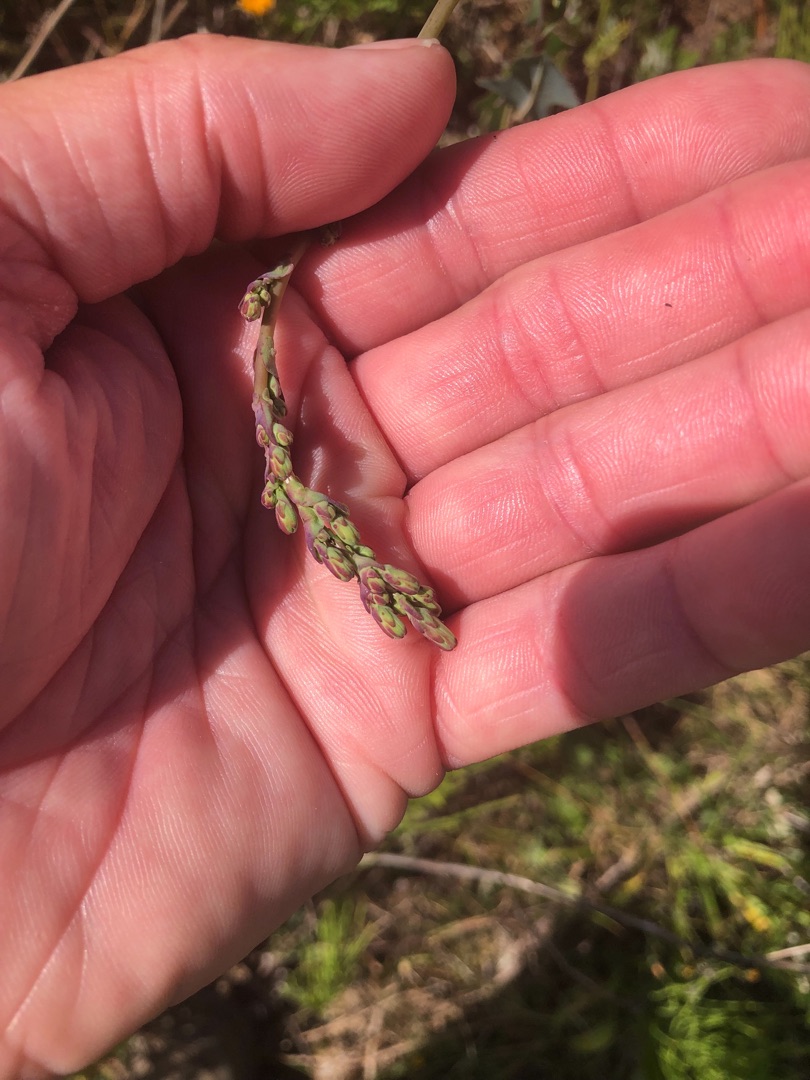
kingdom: Plantae
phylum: Tracheophyta
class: Magnoliopsida
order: Asterales
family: Asteraceae
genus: Lactuca
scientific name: Lactuca serriola
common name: Tornet salat
